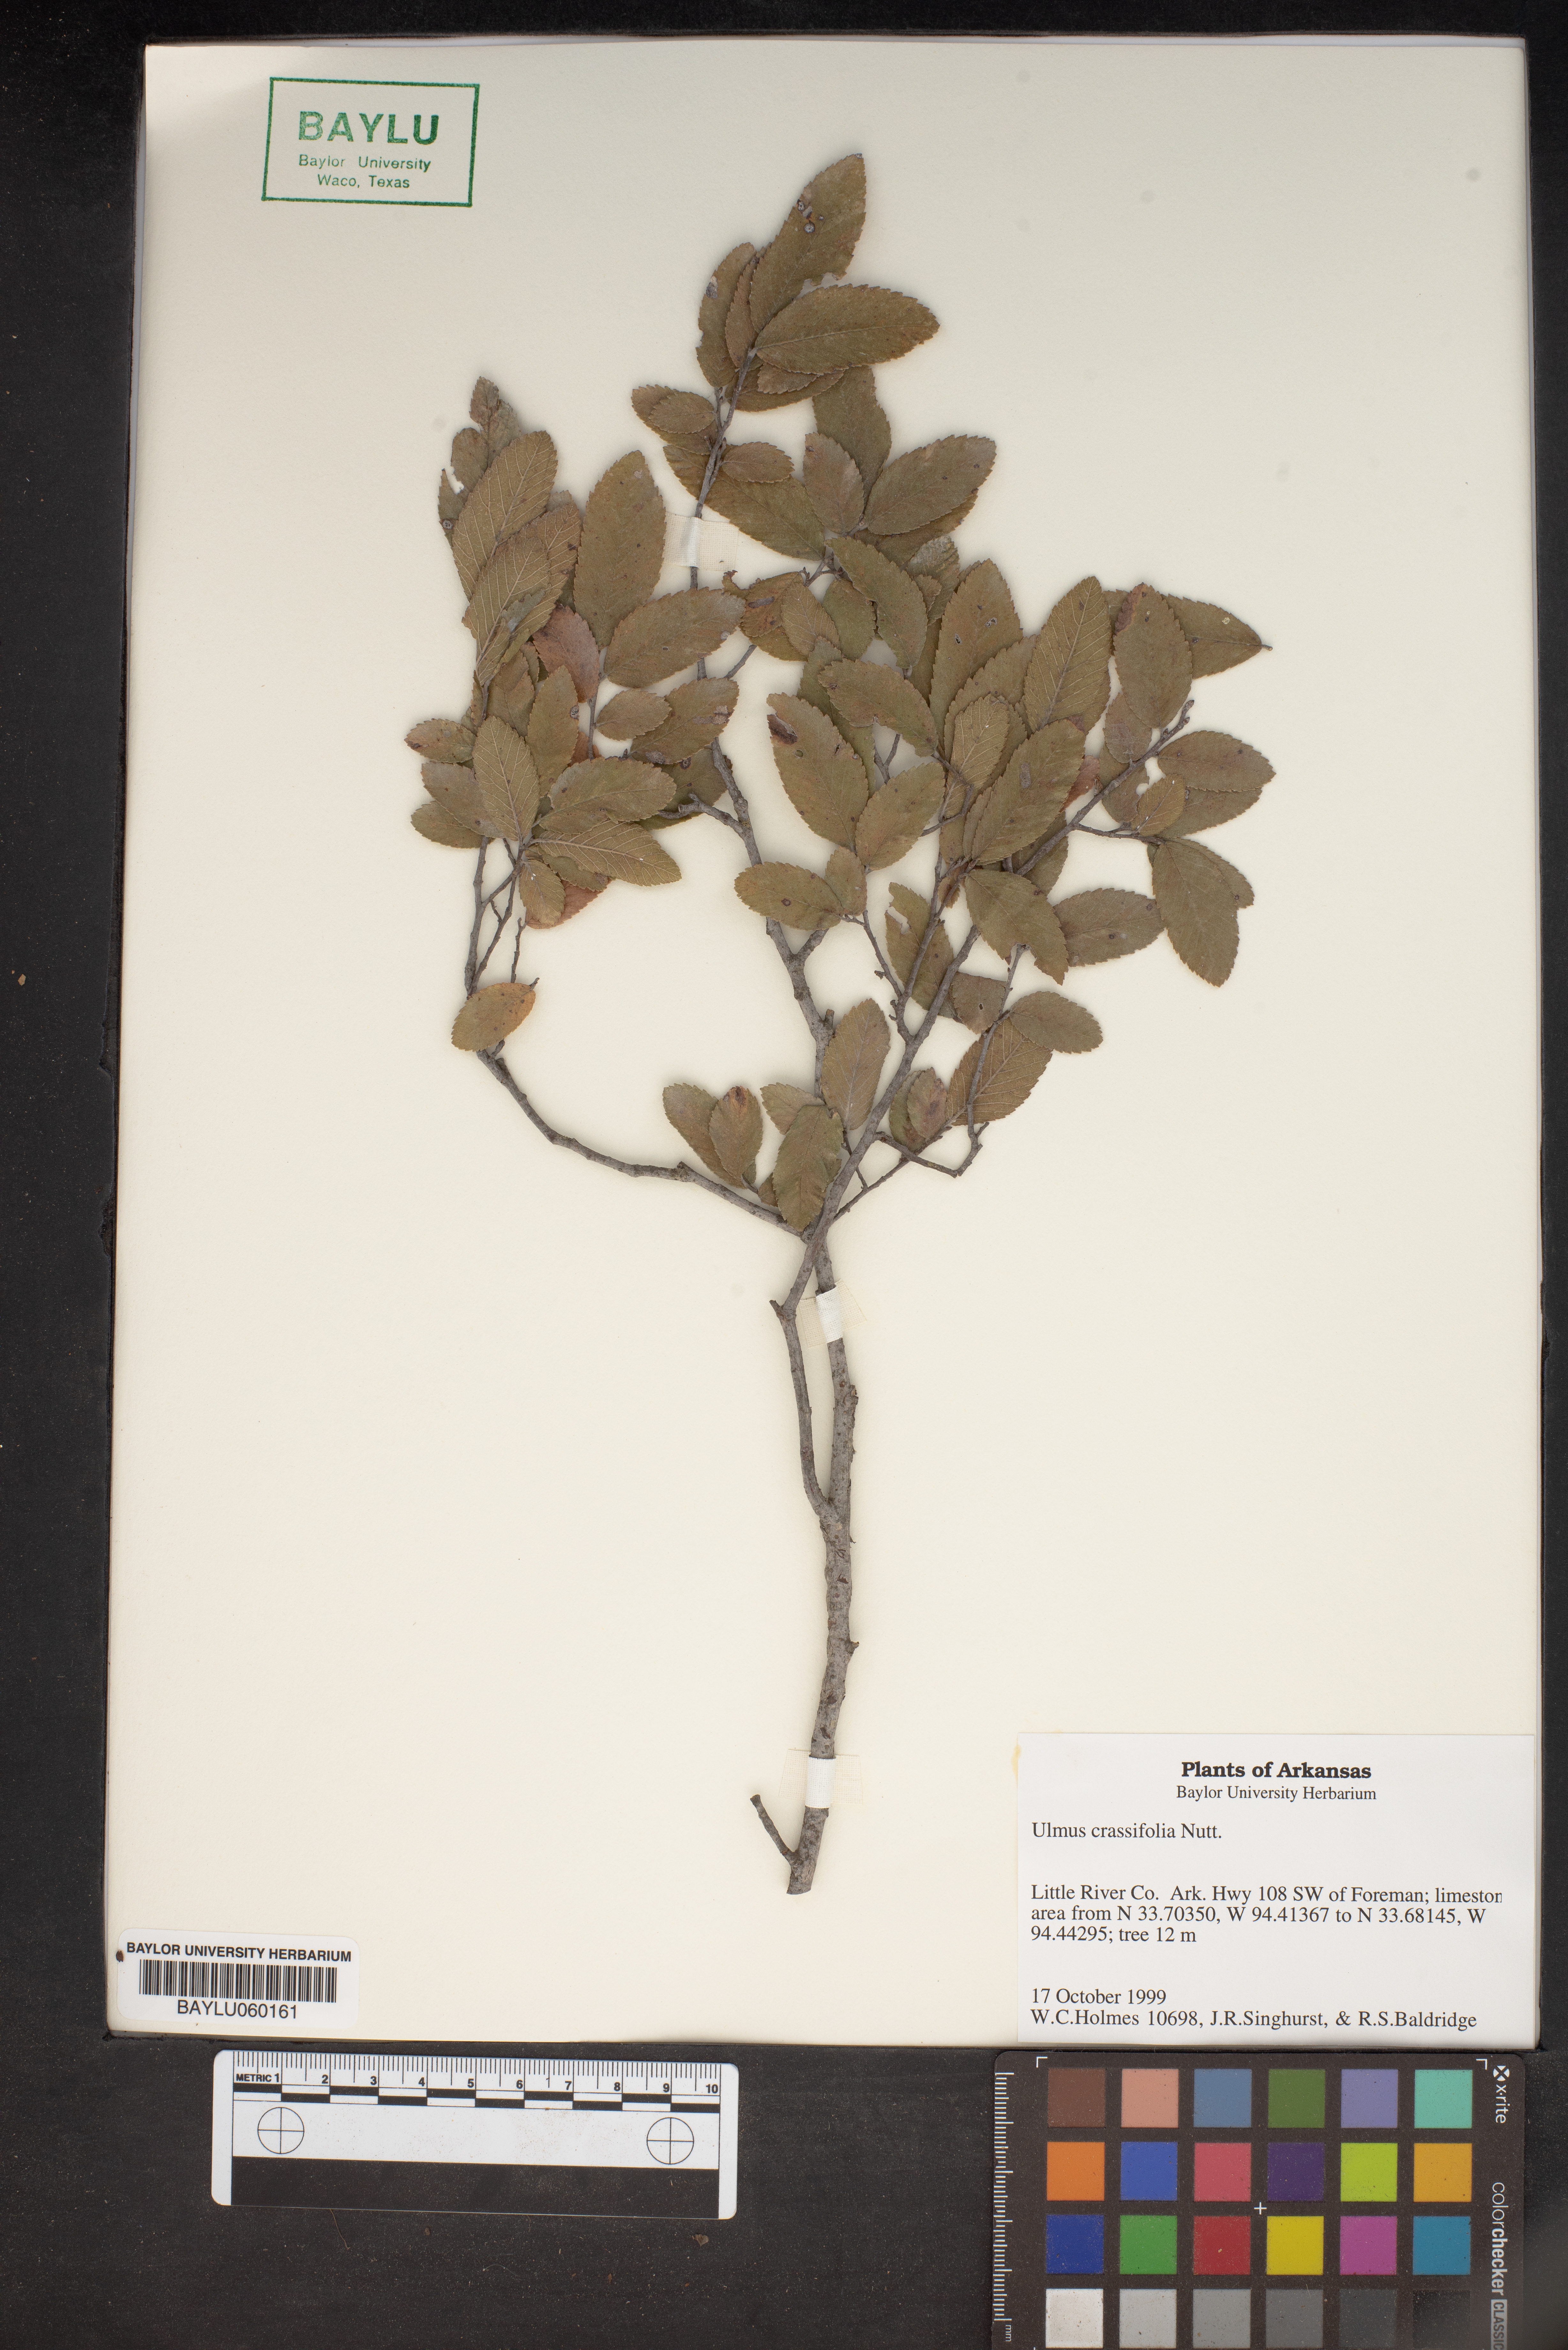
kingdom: Plantae
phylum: Tracheophyta
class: Magnoliopsida
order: Rosales
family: Ulmaceae
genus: Ulmus
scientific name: Ulmus crassifolia
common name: Basket elm
